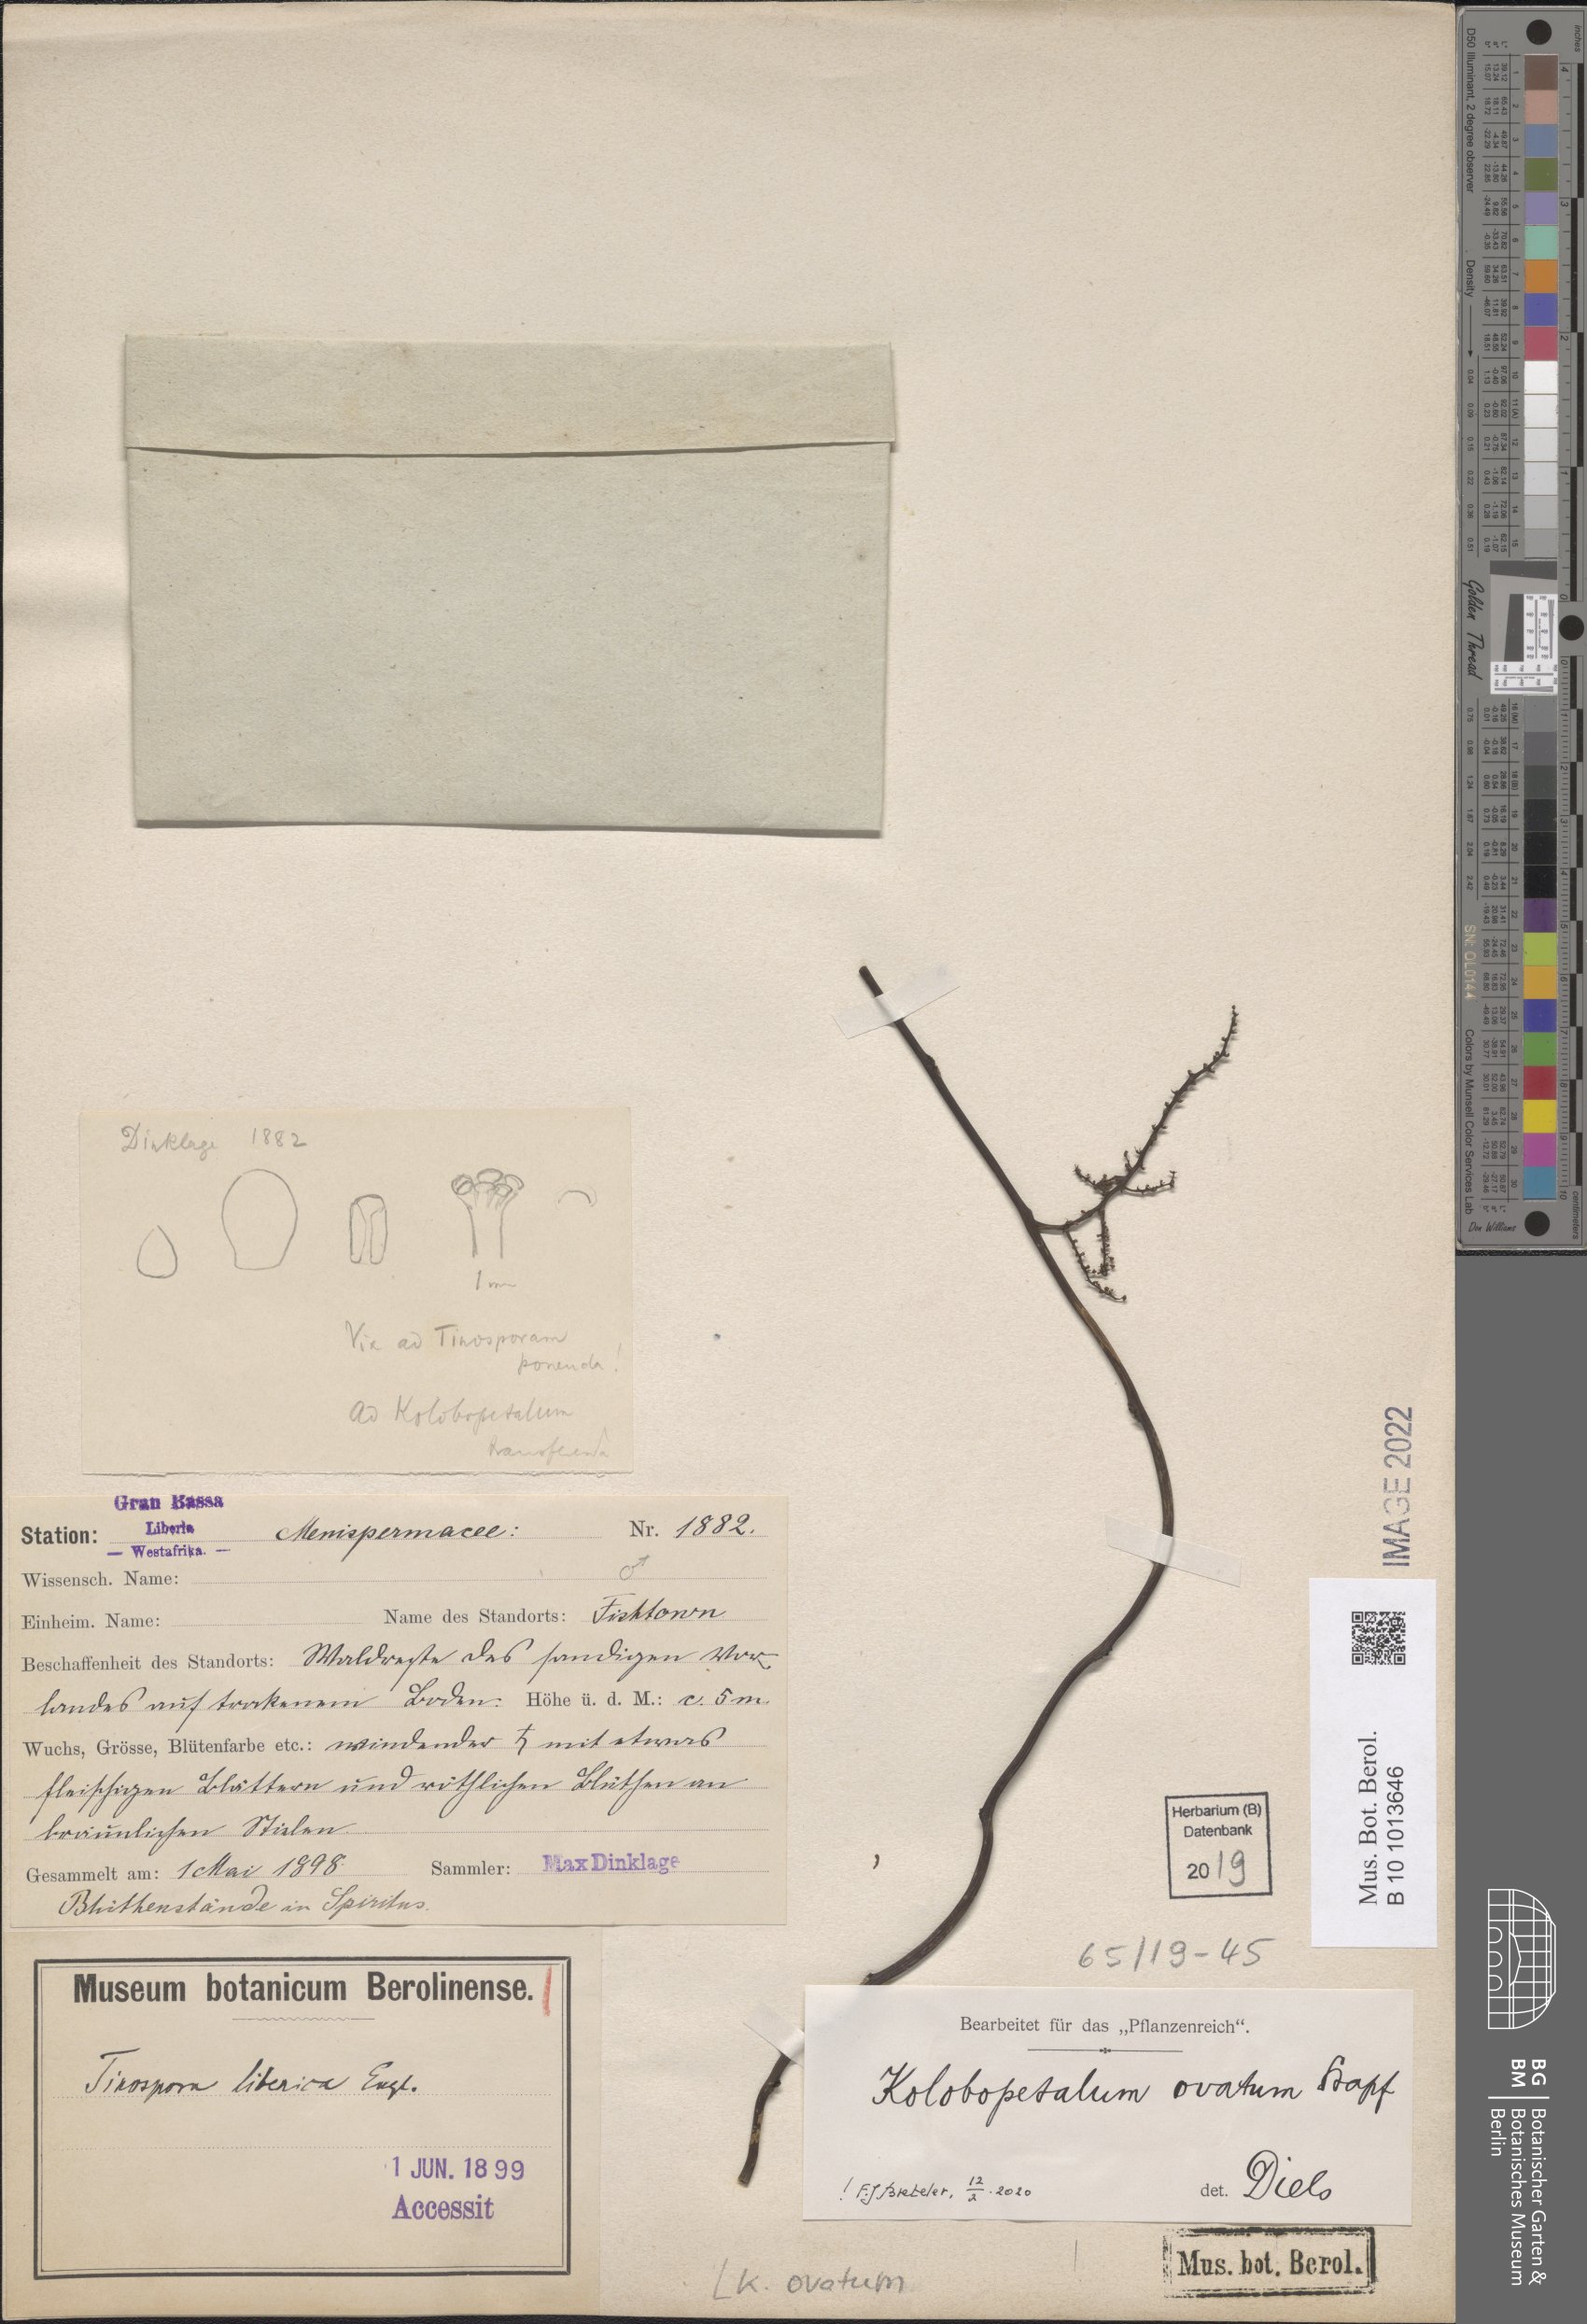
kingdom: Plantae
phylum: Tracheophyta
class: Magnoliopsida
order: Ranunculales
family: Menispermaceae
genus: Kolobopetalum
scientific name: Kolobopetalum ovatum
